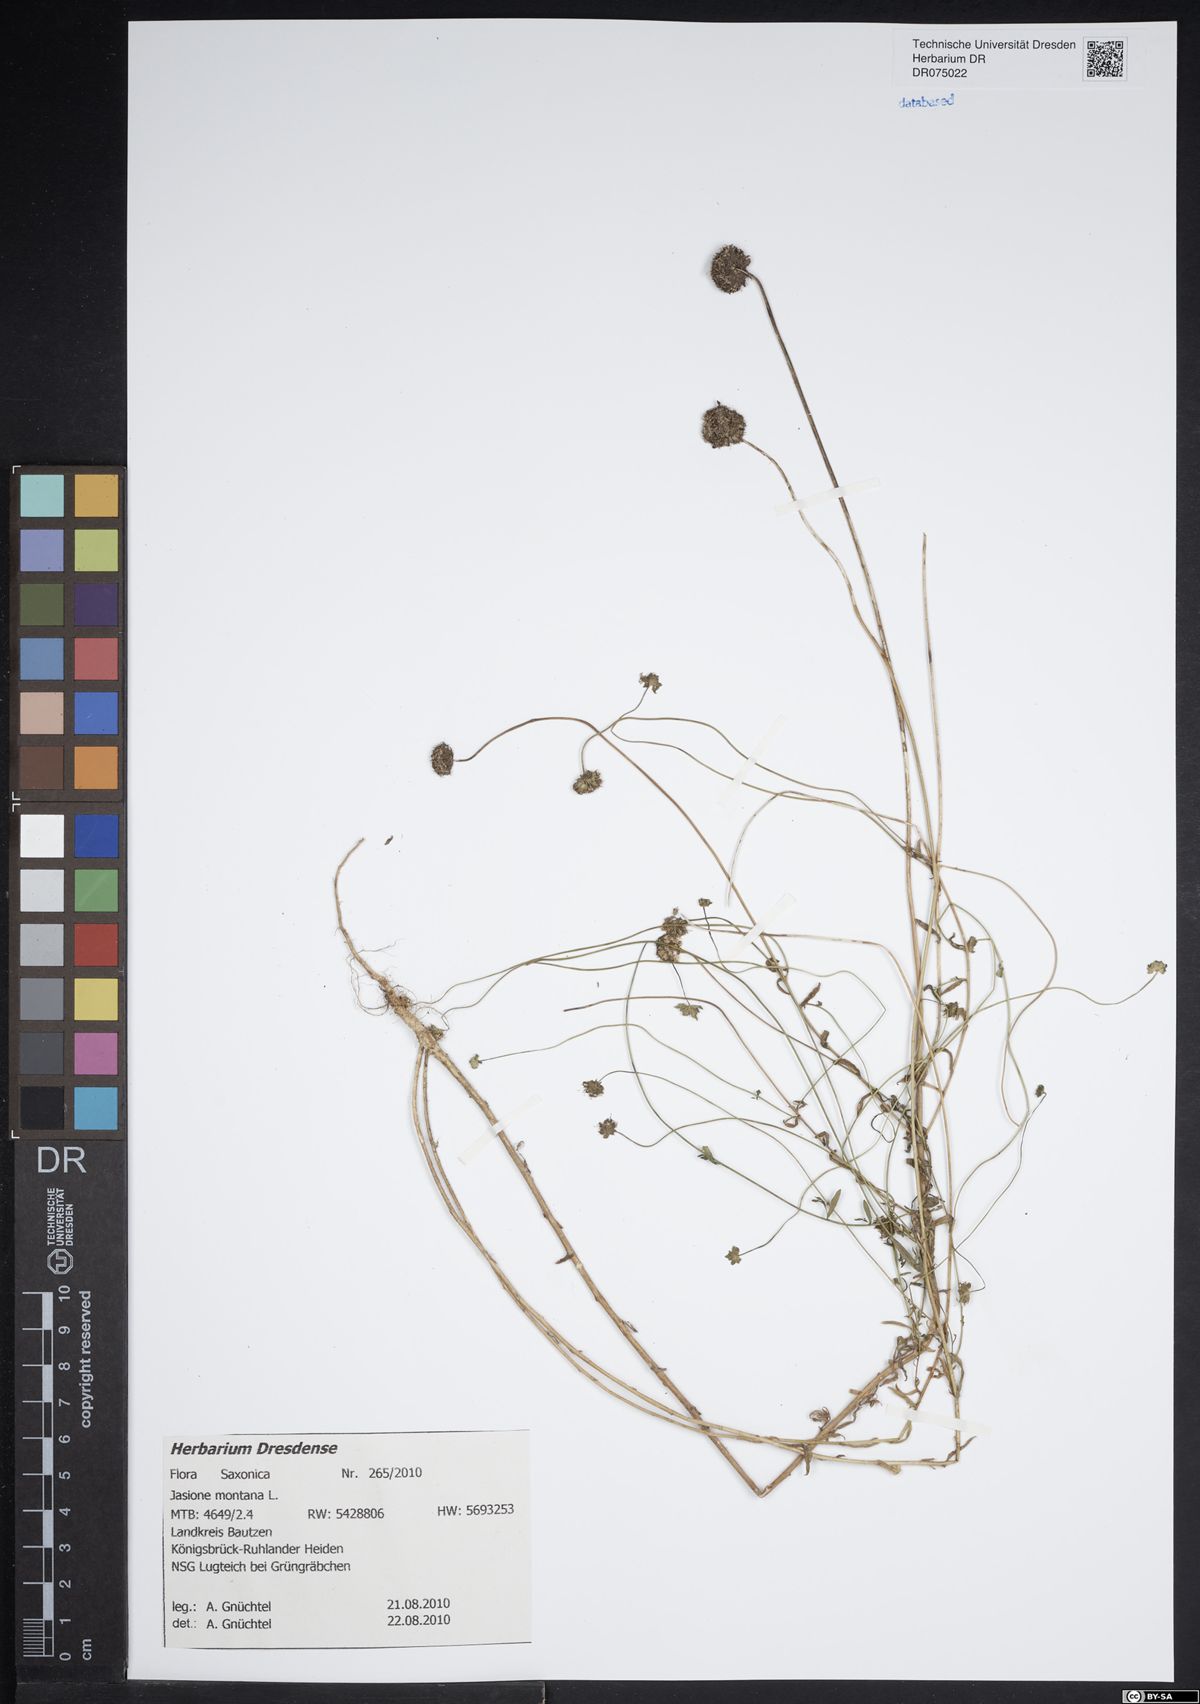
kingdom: Plantae
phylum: Tracheophyta
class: Magnoliopsida
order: Asterales
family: Campanulaceae
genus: Jasione
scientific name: Jasione montana
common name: Sheep's-bit
